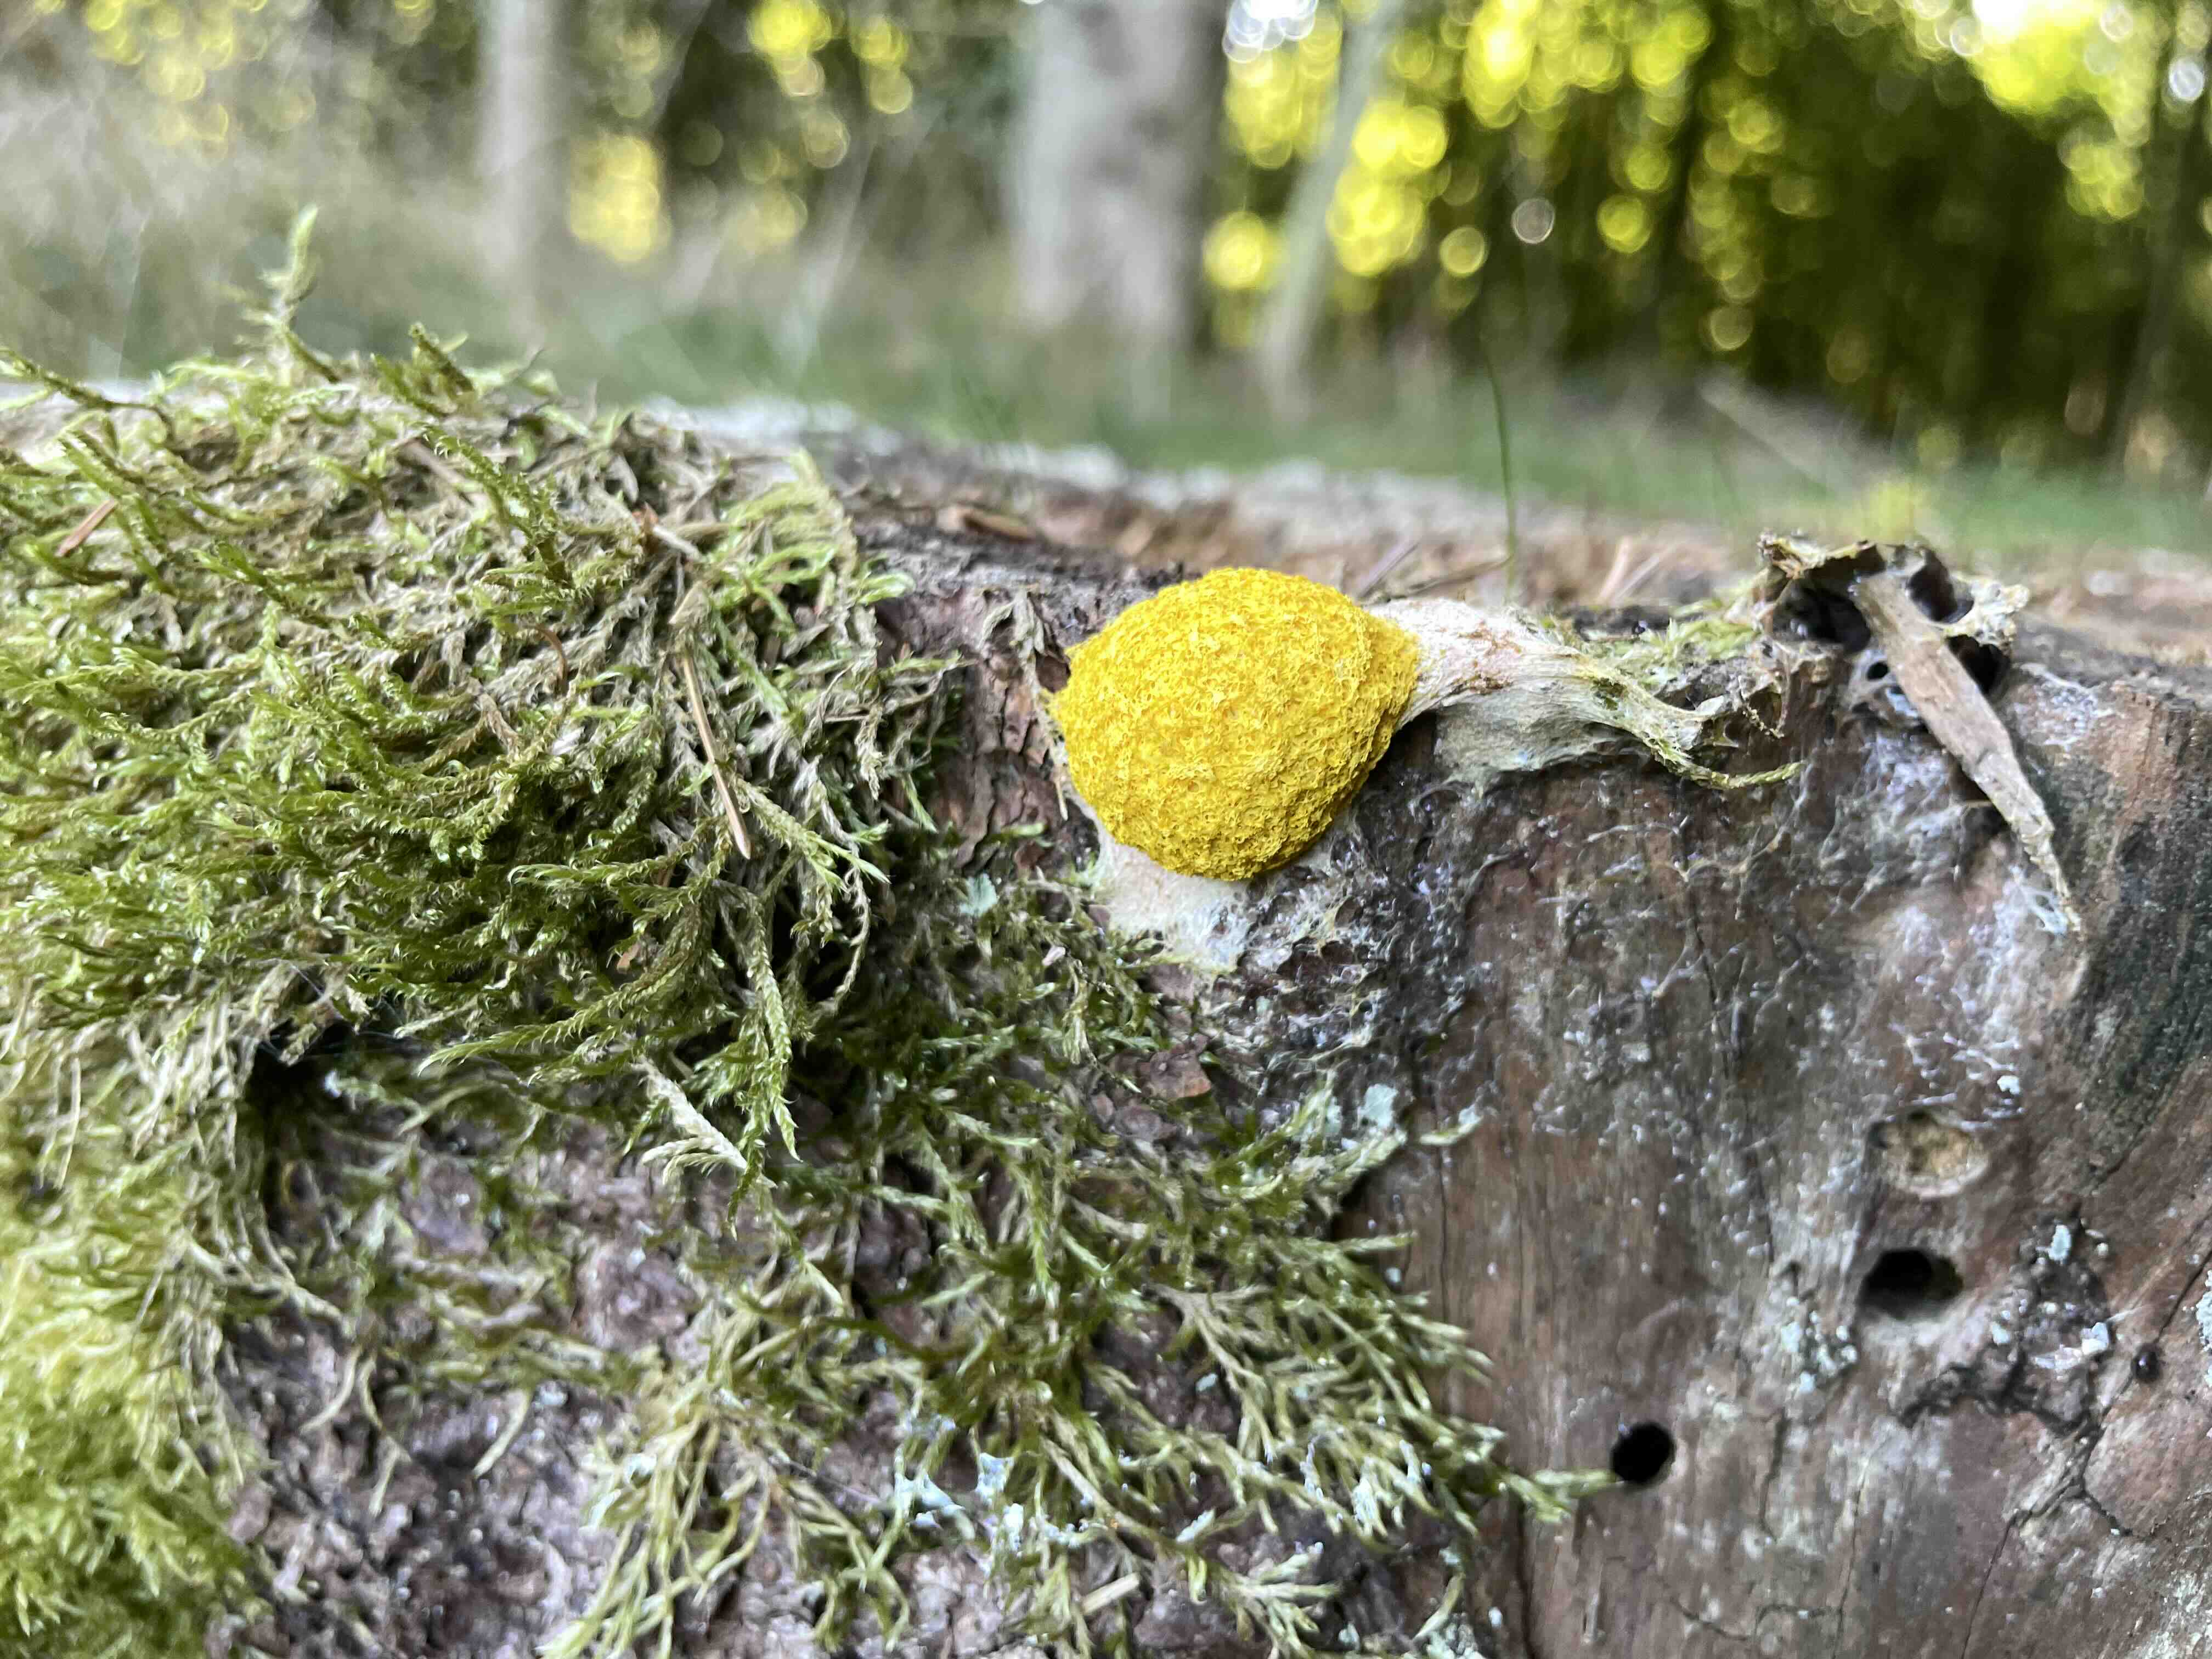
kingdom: Protozoa
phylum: Mycetozoa
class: Myxomycetes
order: Physarales
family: Physaraceae
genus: Fuligo
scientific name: Fuligo septica
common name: gul troldsmør
